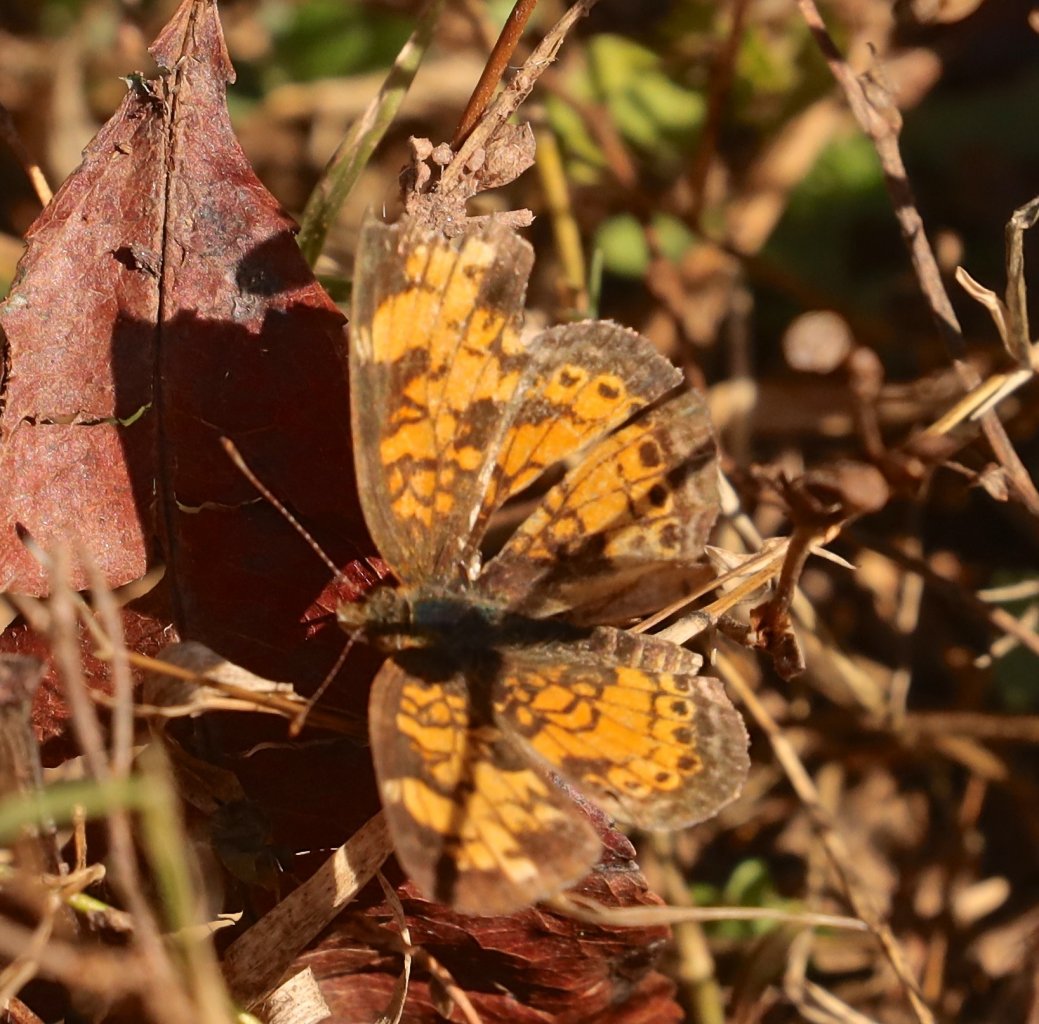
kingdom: Animalia
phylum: Arthropoda
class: Insecta
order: Lepidoptera
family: Nymphalidae
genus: Phyciodes
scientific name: Phyciodes tharos
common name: Pearl Crescent
